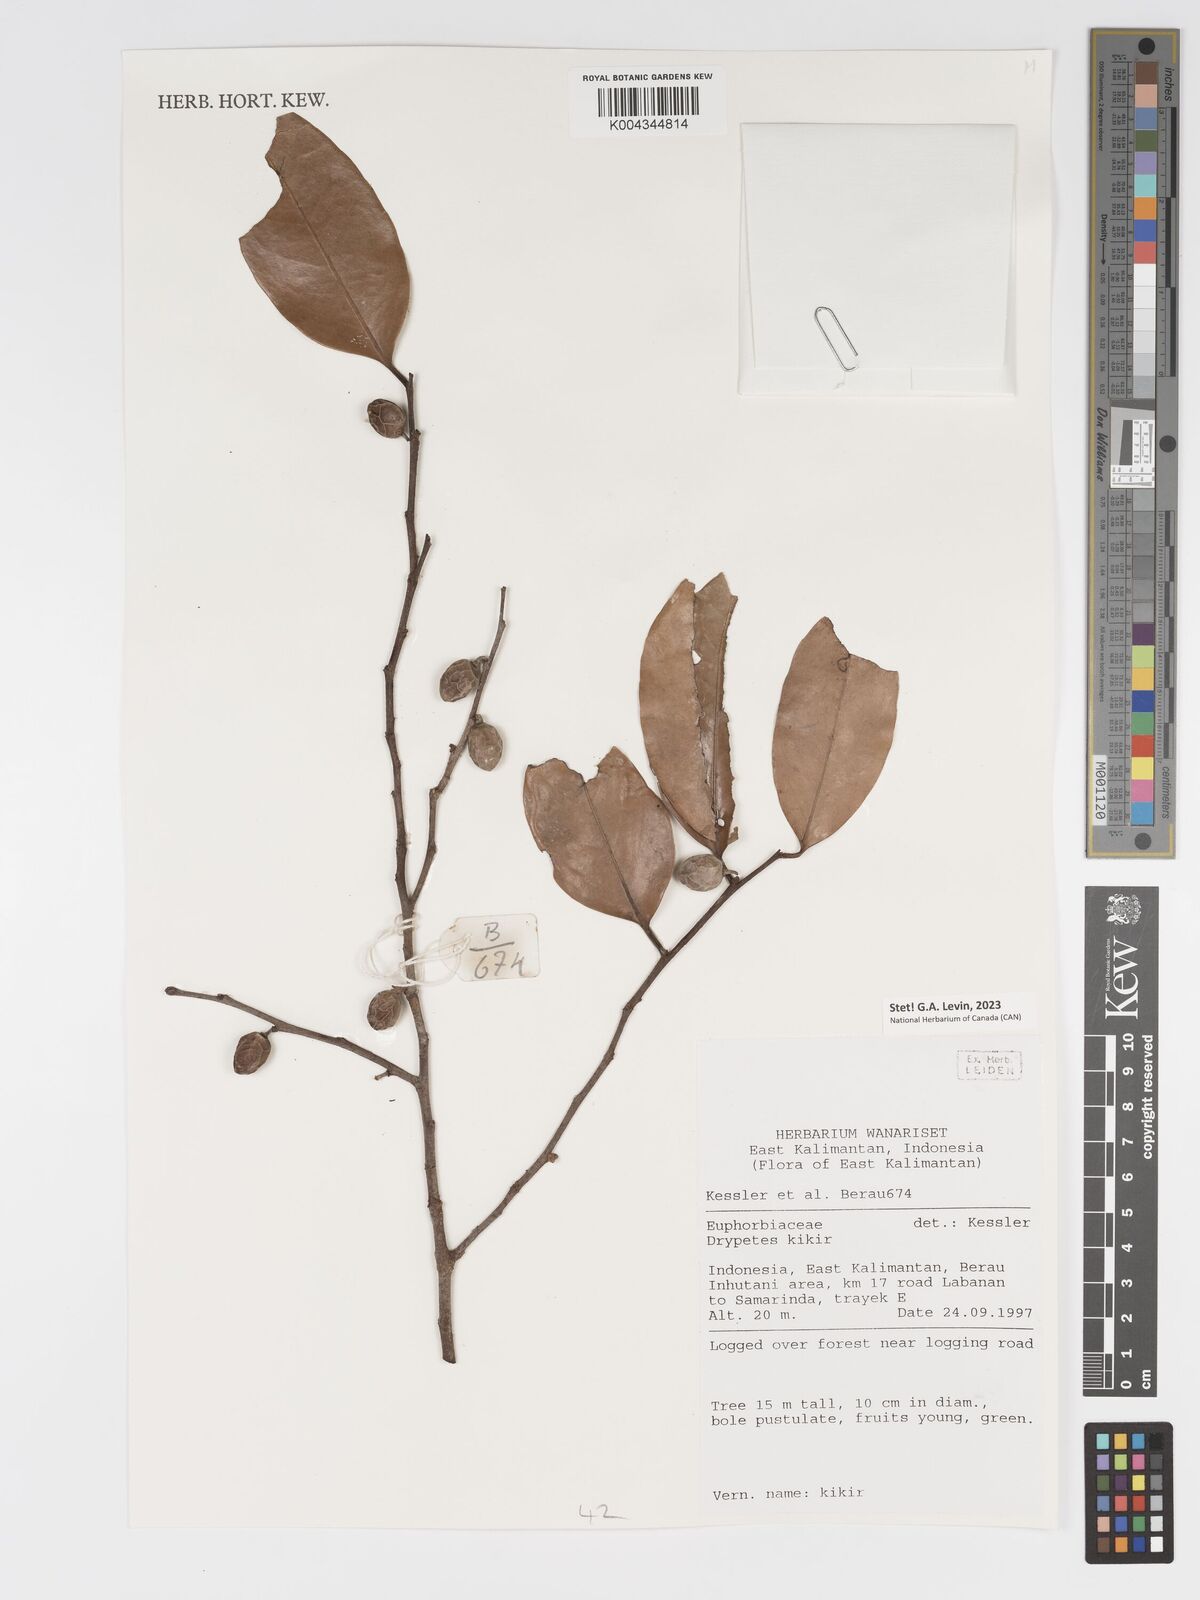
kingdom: Plantae
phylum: Tracheophyta
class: Magnoliopsida
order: Malpighiales
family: Putranjivaceae
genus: Drypetes
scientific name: Drypetes kikir
